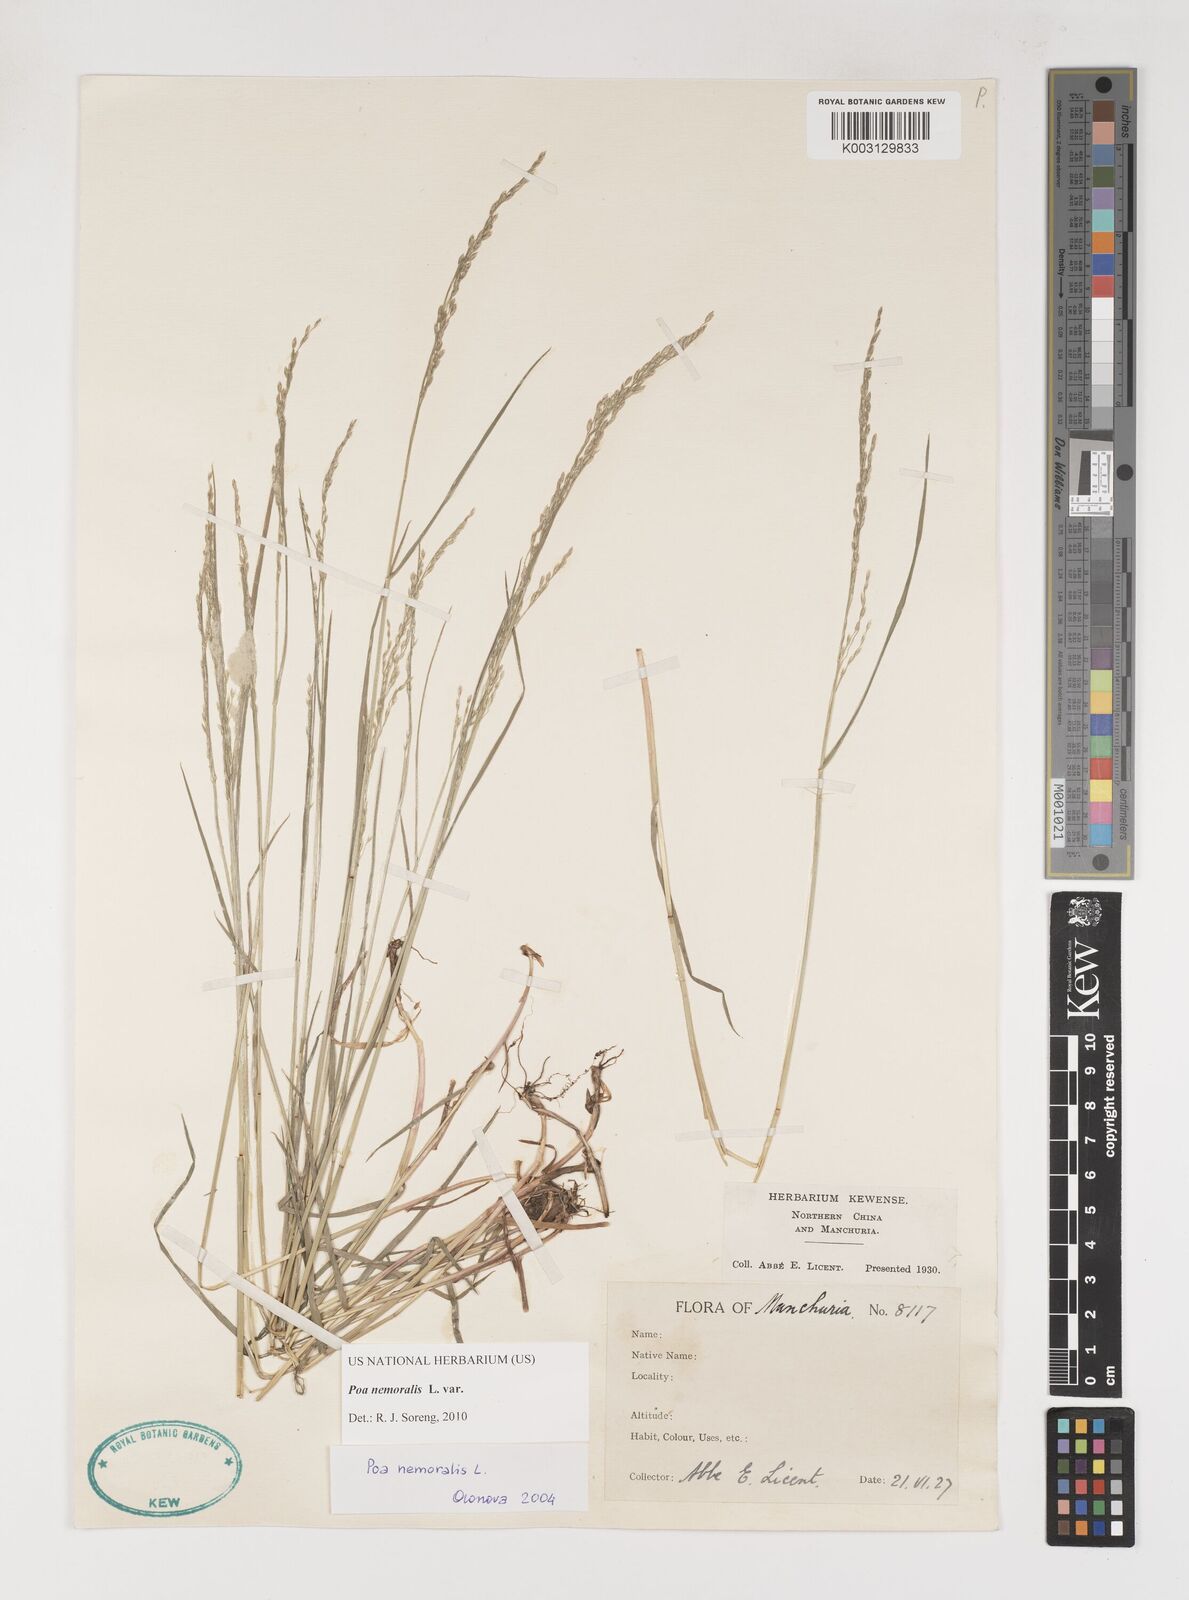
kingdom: Plantae
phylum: Tracheophyta
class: Liliopsida
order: Poales
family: Poaceae
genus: Poa
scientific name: Poa nemoralis
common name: Wood bluegrass
